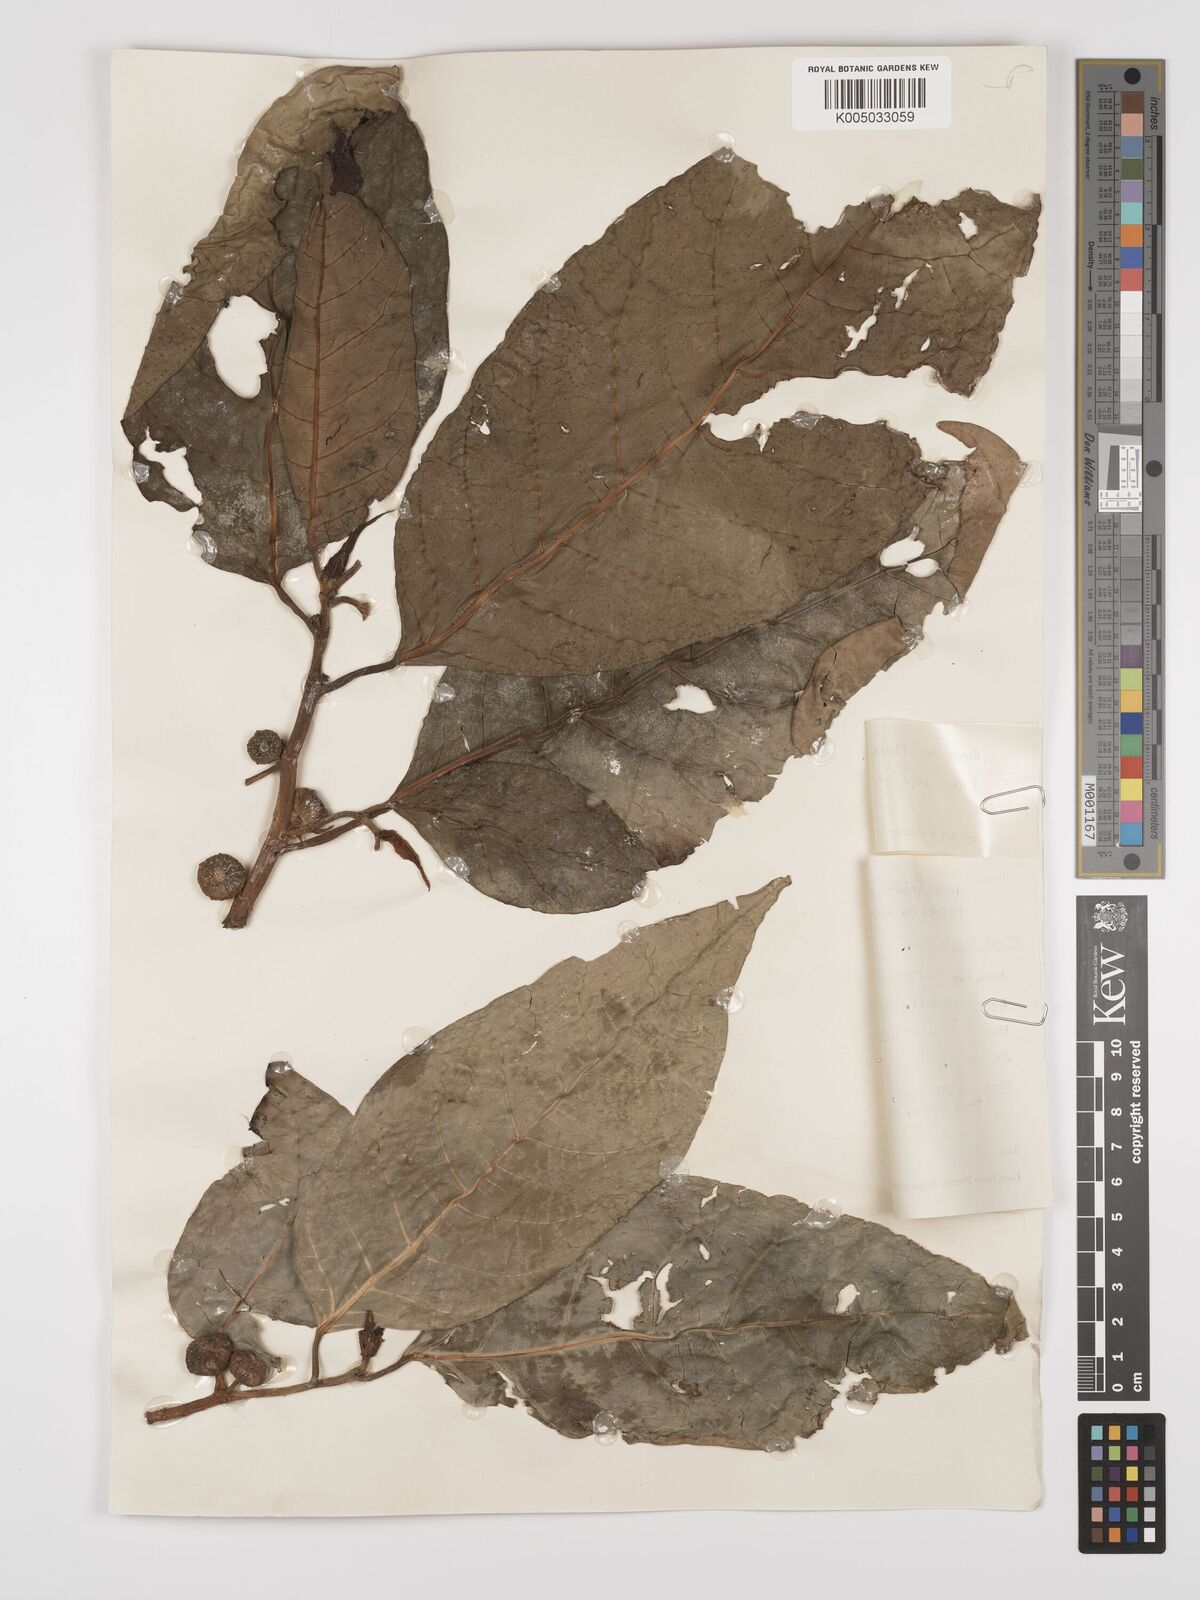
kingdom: Plantae
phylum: Tracheophyta
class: Magnoliopsida
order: Rosales
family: Moraceae
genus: Ficus
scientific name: Ficus septica
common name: Septic fig
